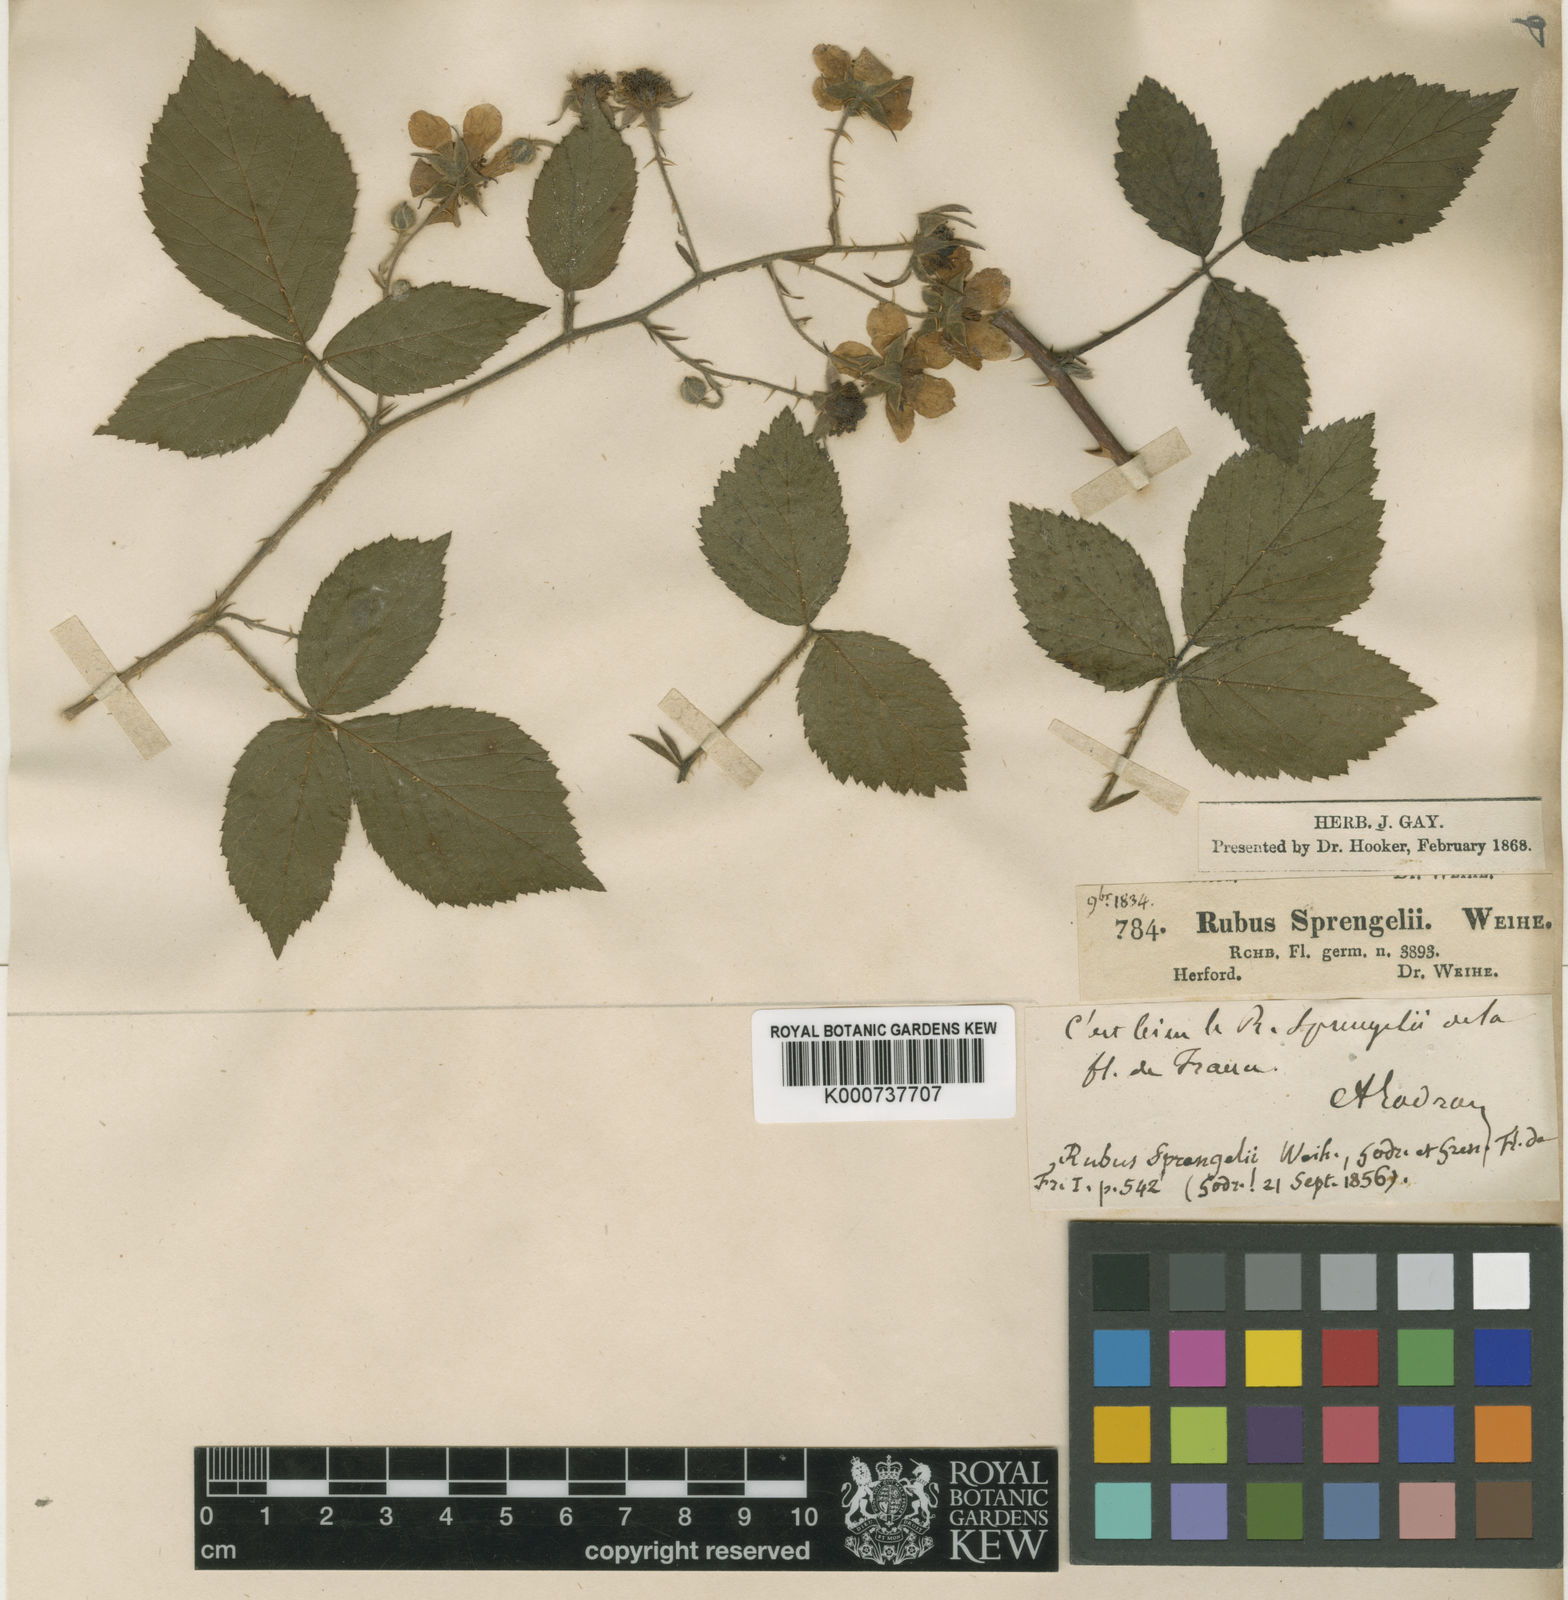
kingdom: Plantae
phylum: Tracheophyta
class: Magnoliopsida
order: Rosales
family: Rosaceae
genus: Rubus
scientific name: Rubus sprengelii
